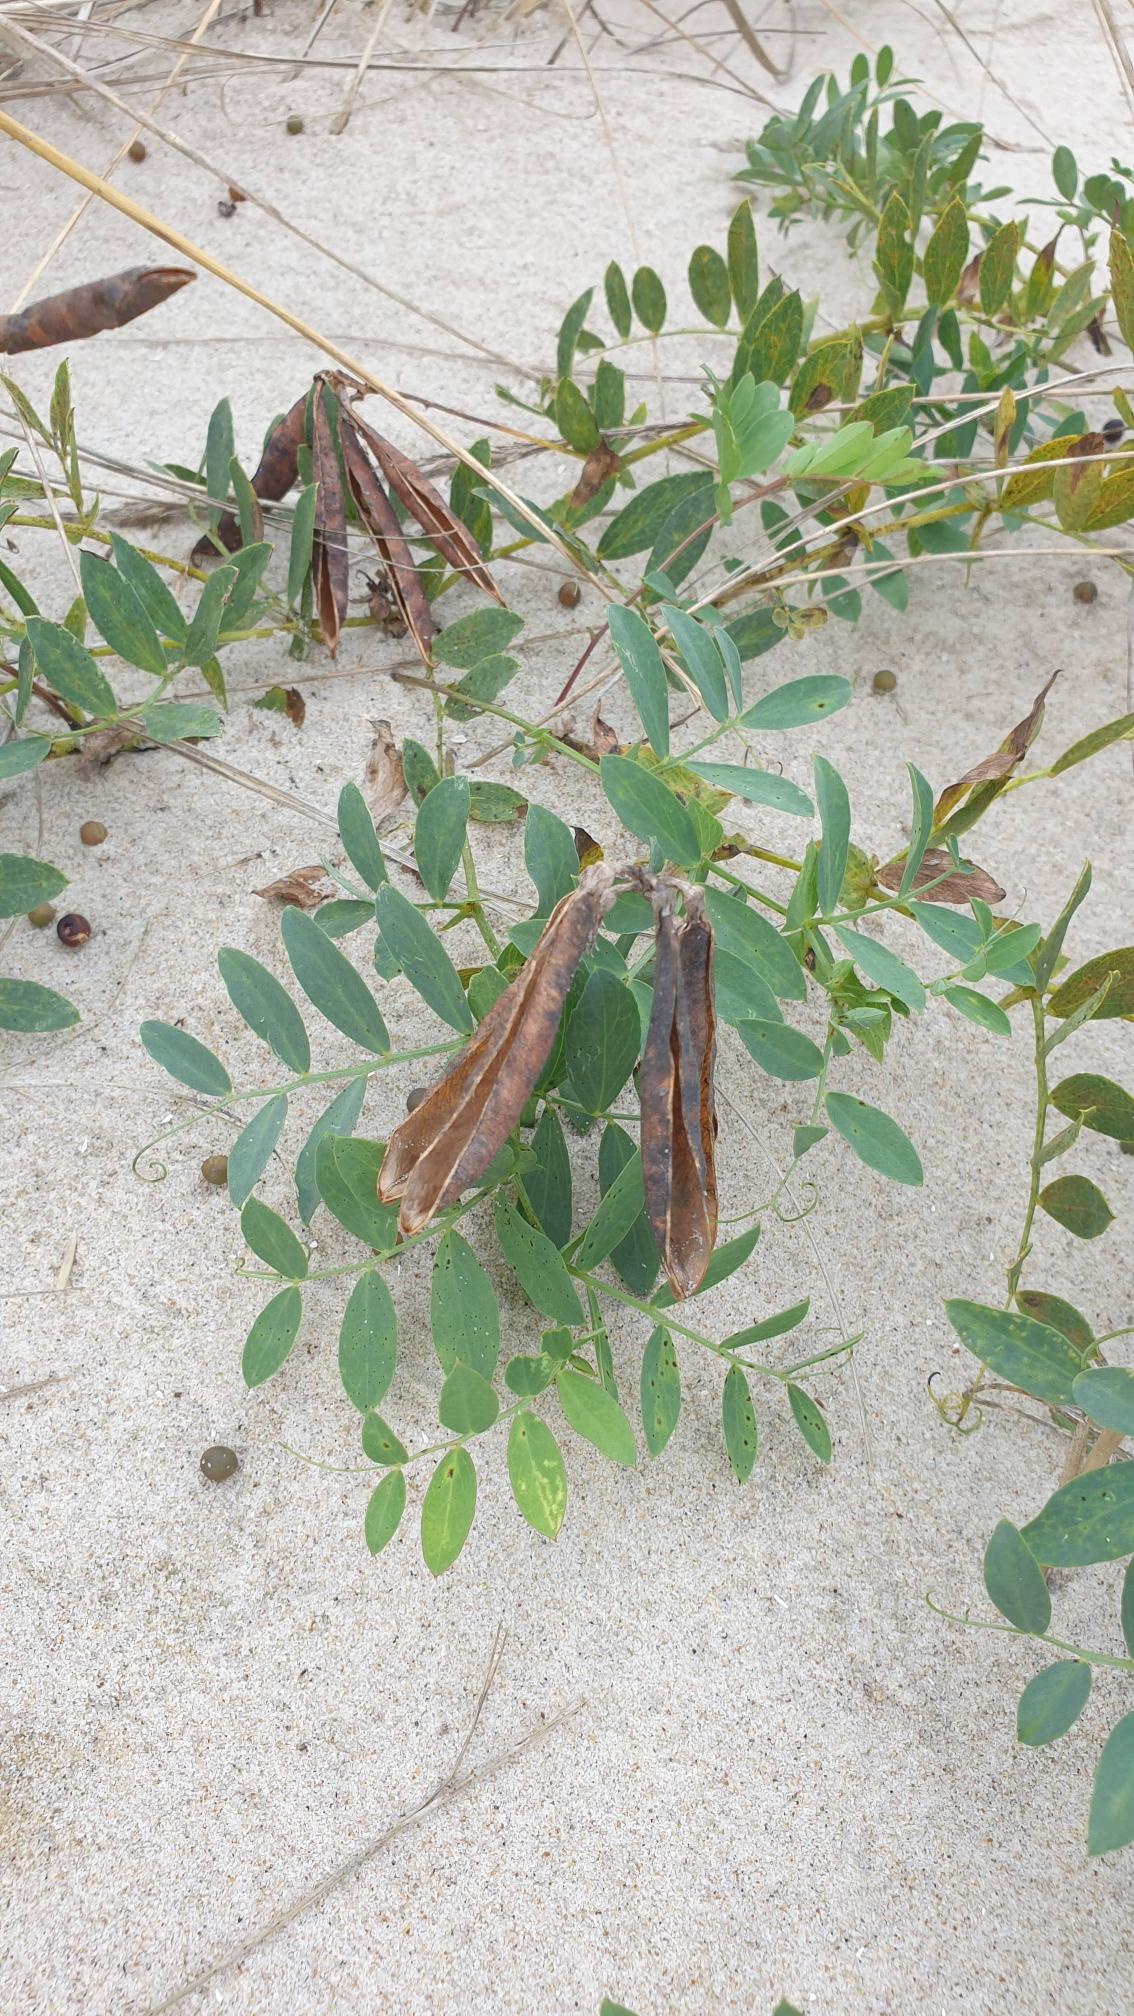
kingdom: Plantae
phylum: Tracheophyta
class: Magnoliopsida
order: Fabales
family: Fabaceae
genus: Lathyrus
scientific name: Lathyrus japonicus
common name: Strand-fladbælg
